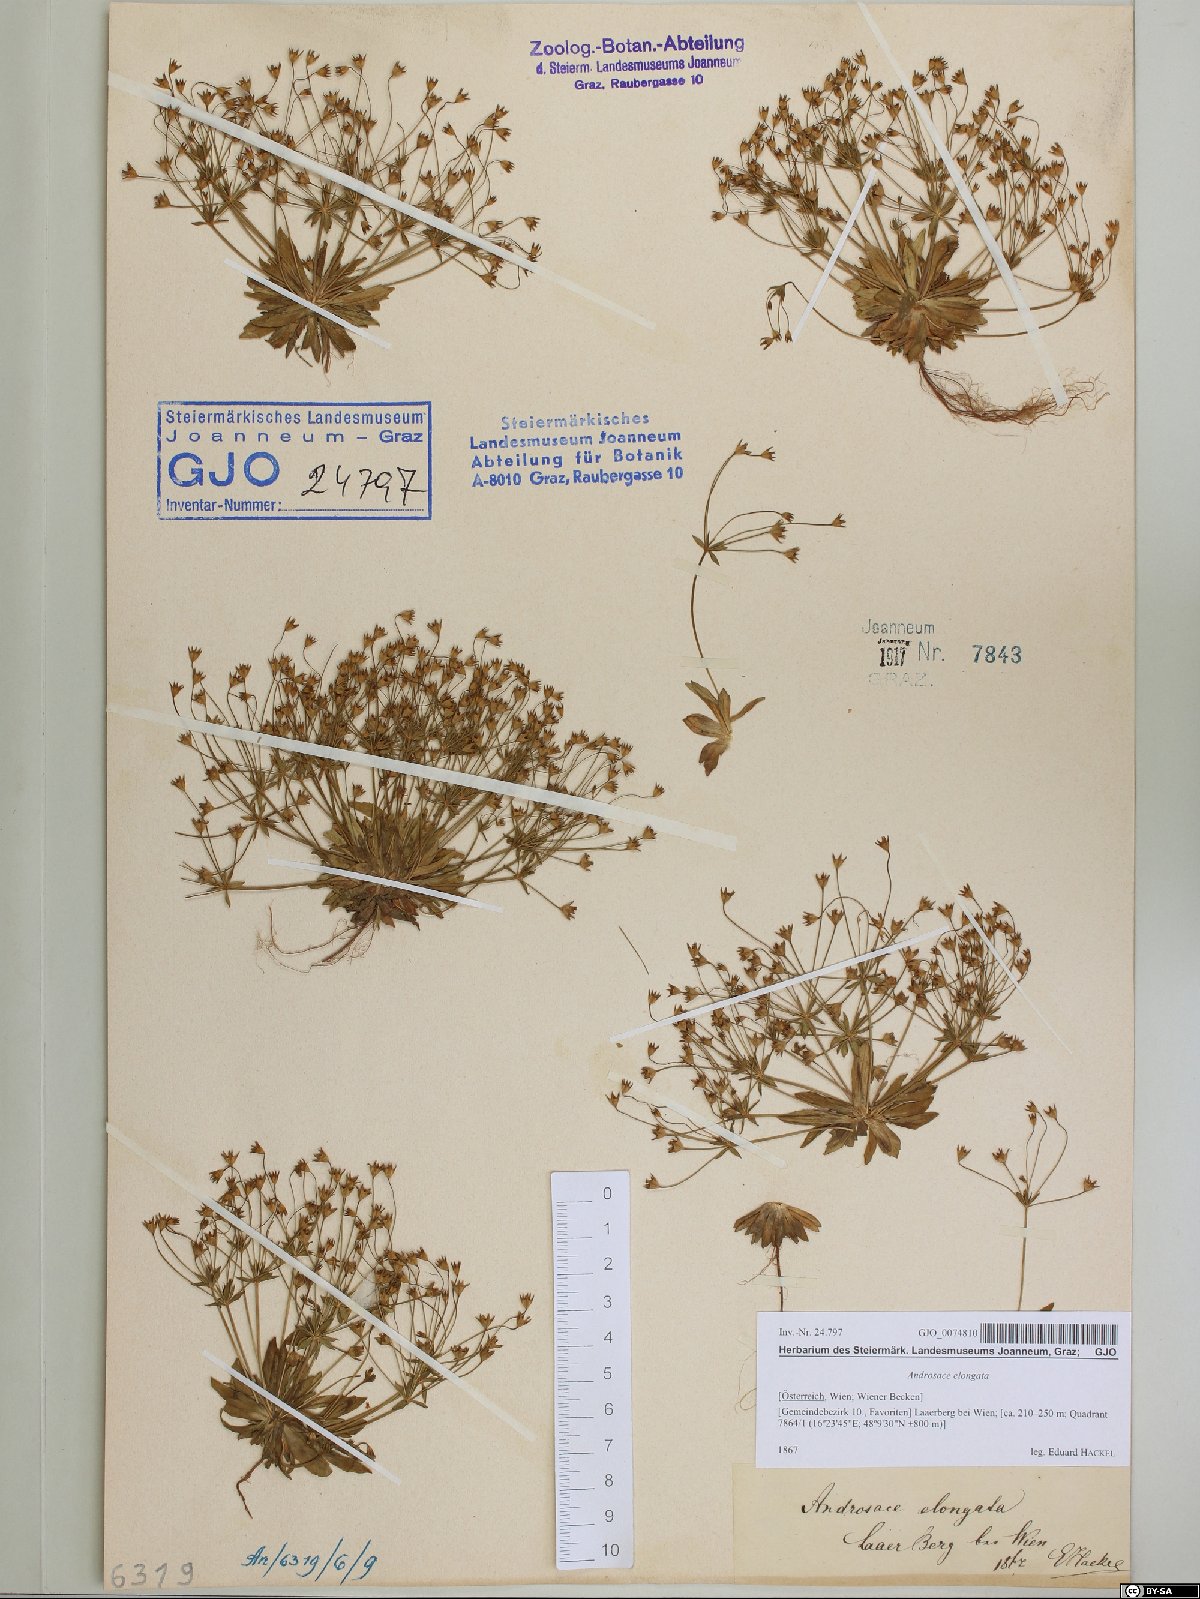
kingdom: Plantae
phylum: Tracheophyta
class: Magnoliopsida
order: Ericales
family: Primulaceae
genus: Androsace
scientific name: Androsace elongata
